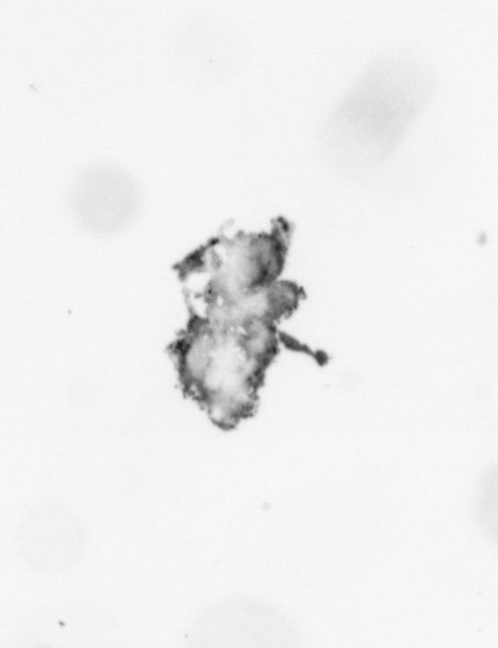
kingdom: Animalia
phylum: Annelida
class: Polychaeta
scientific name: Polychaeta
